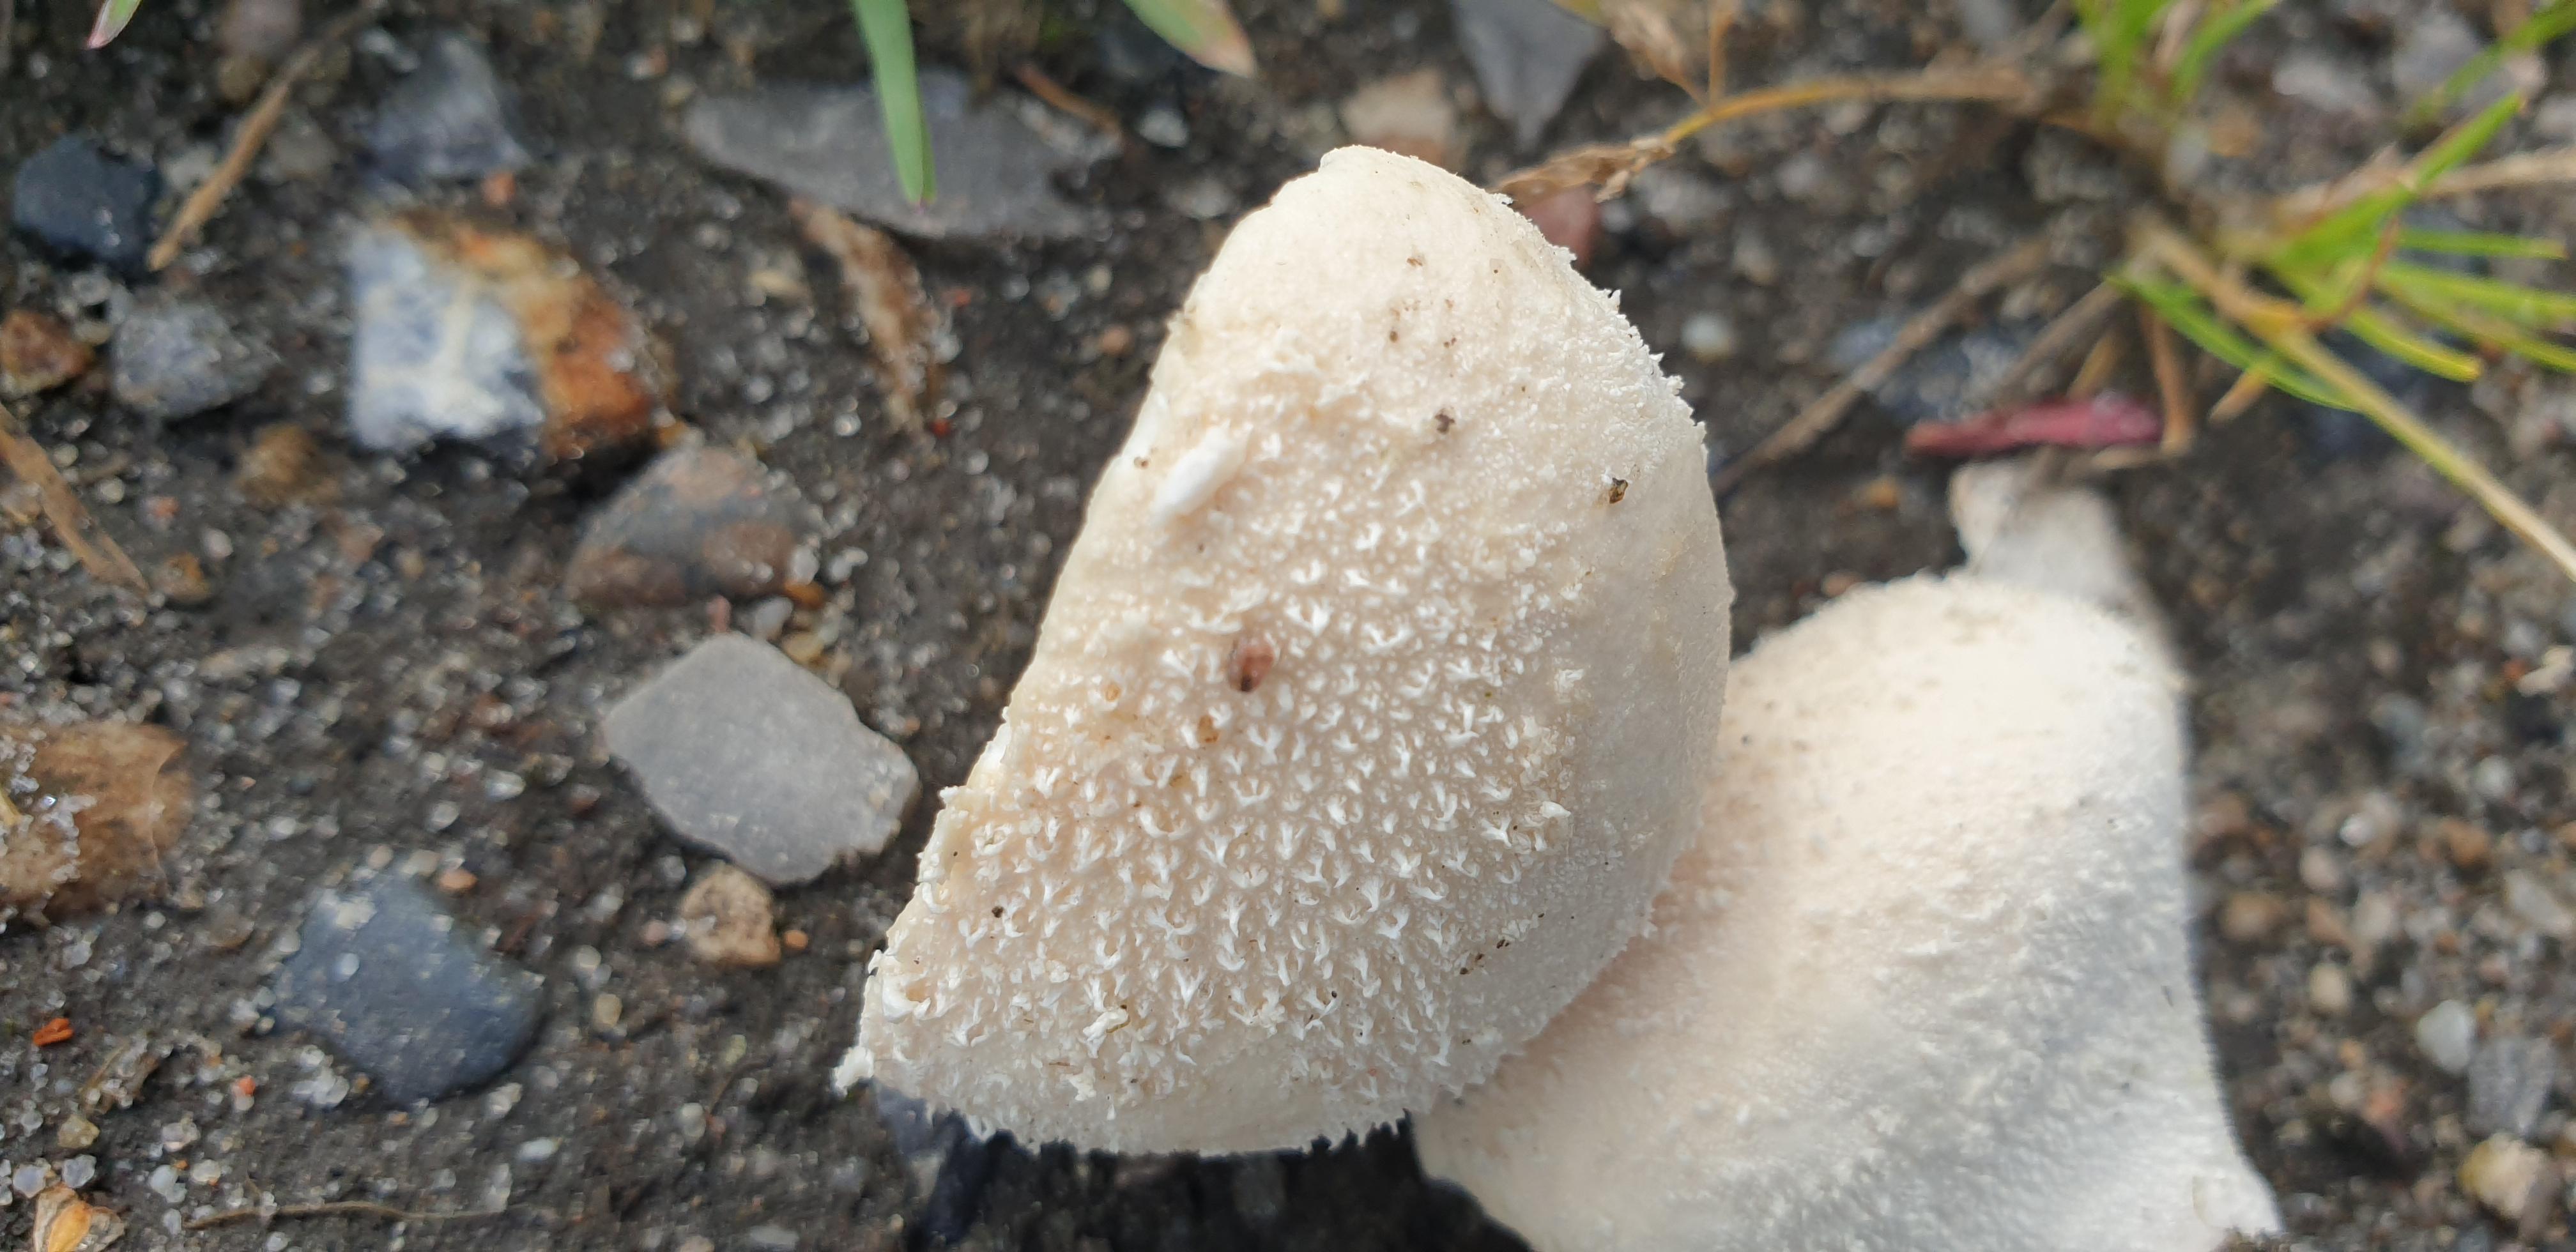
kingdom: Fungi
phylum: Basidiomycota
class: Agaricomycetes
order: Agaricales
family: Lycoperdaceae
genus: Lycoperdon
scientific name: Lycoperdon pratense
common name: flad støvbold
